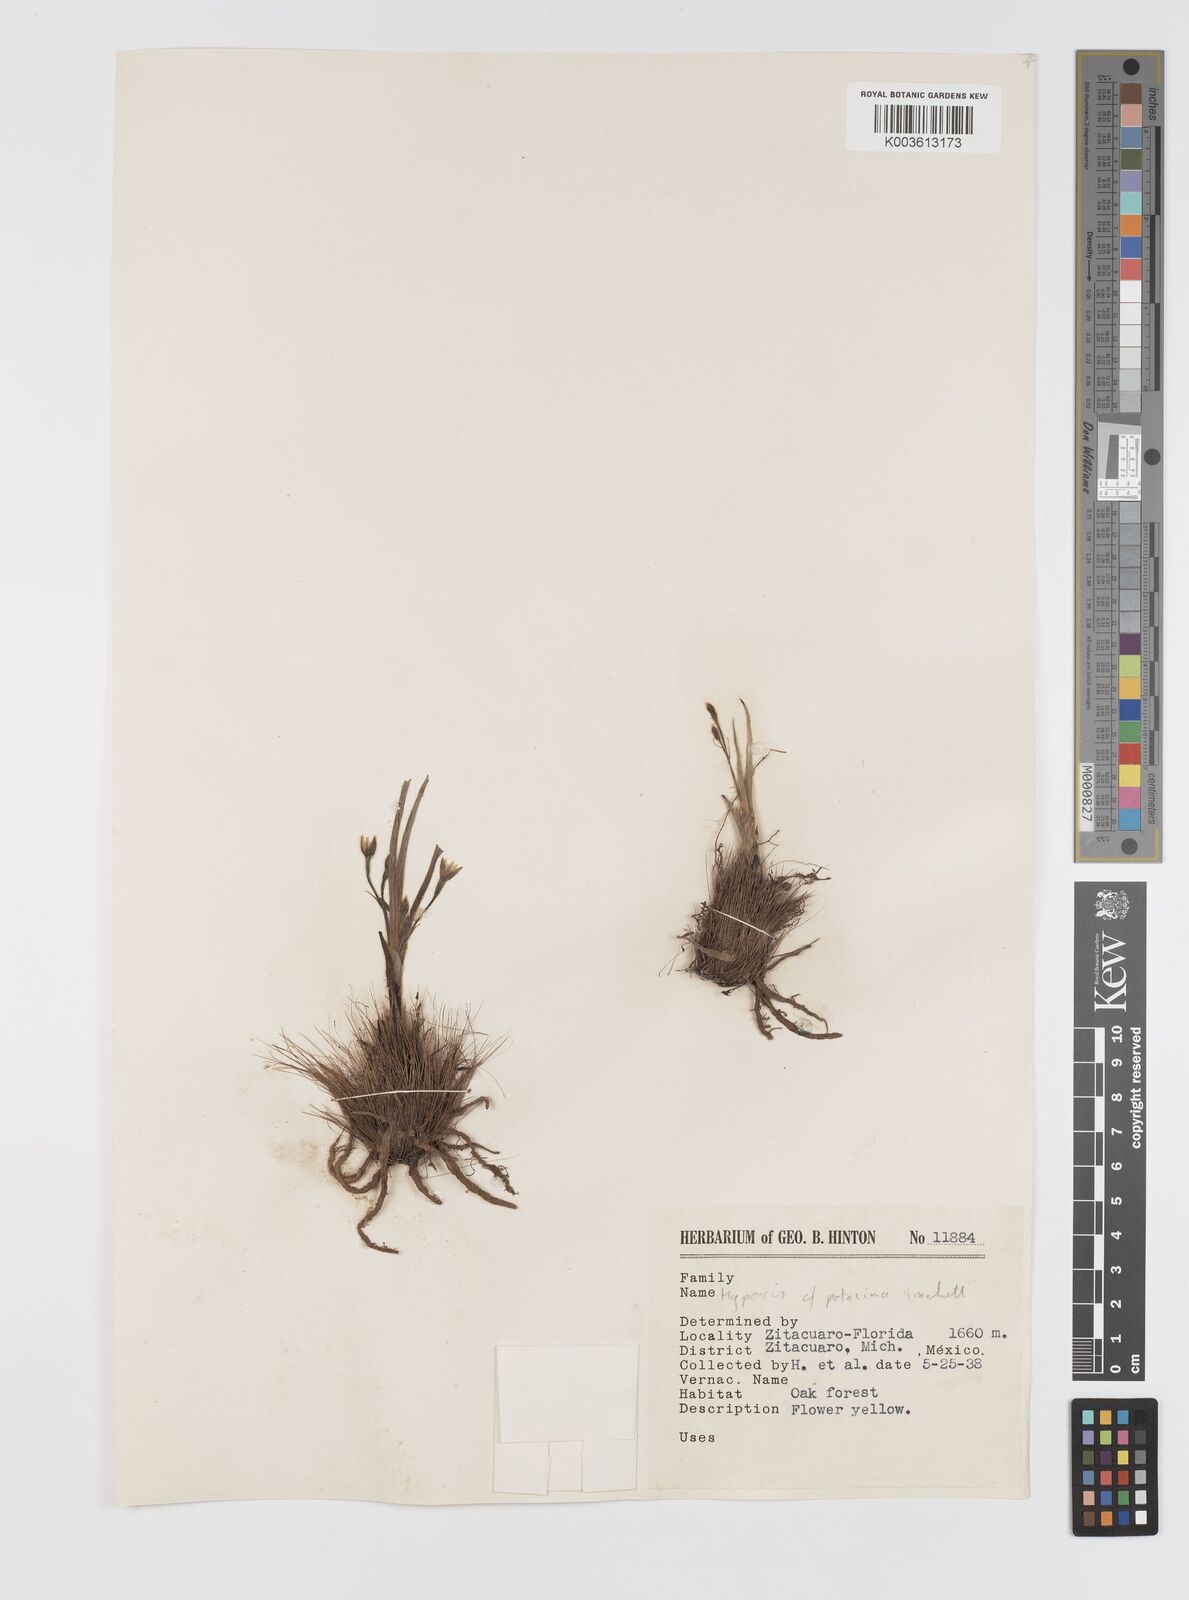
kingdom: Plantae
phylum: Tracheophyta
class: Liliopsida
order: Asparagales
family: Hypoxidaceae
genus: Hypoxis
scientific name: Hypoxis potosina
